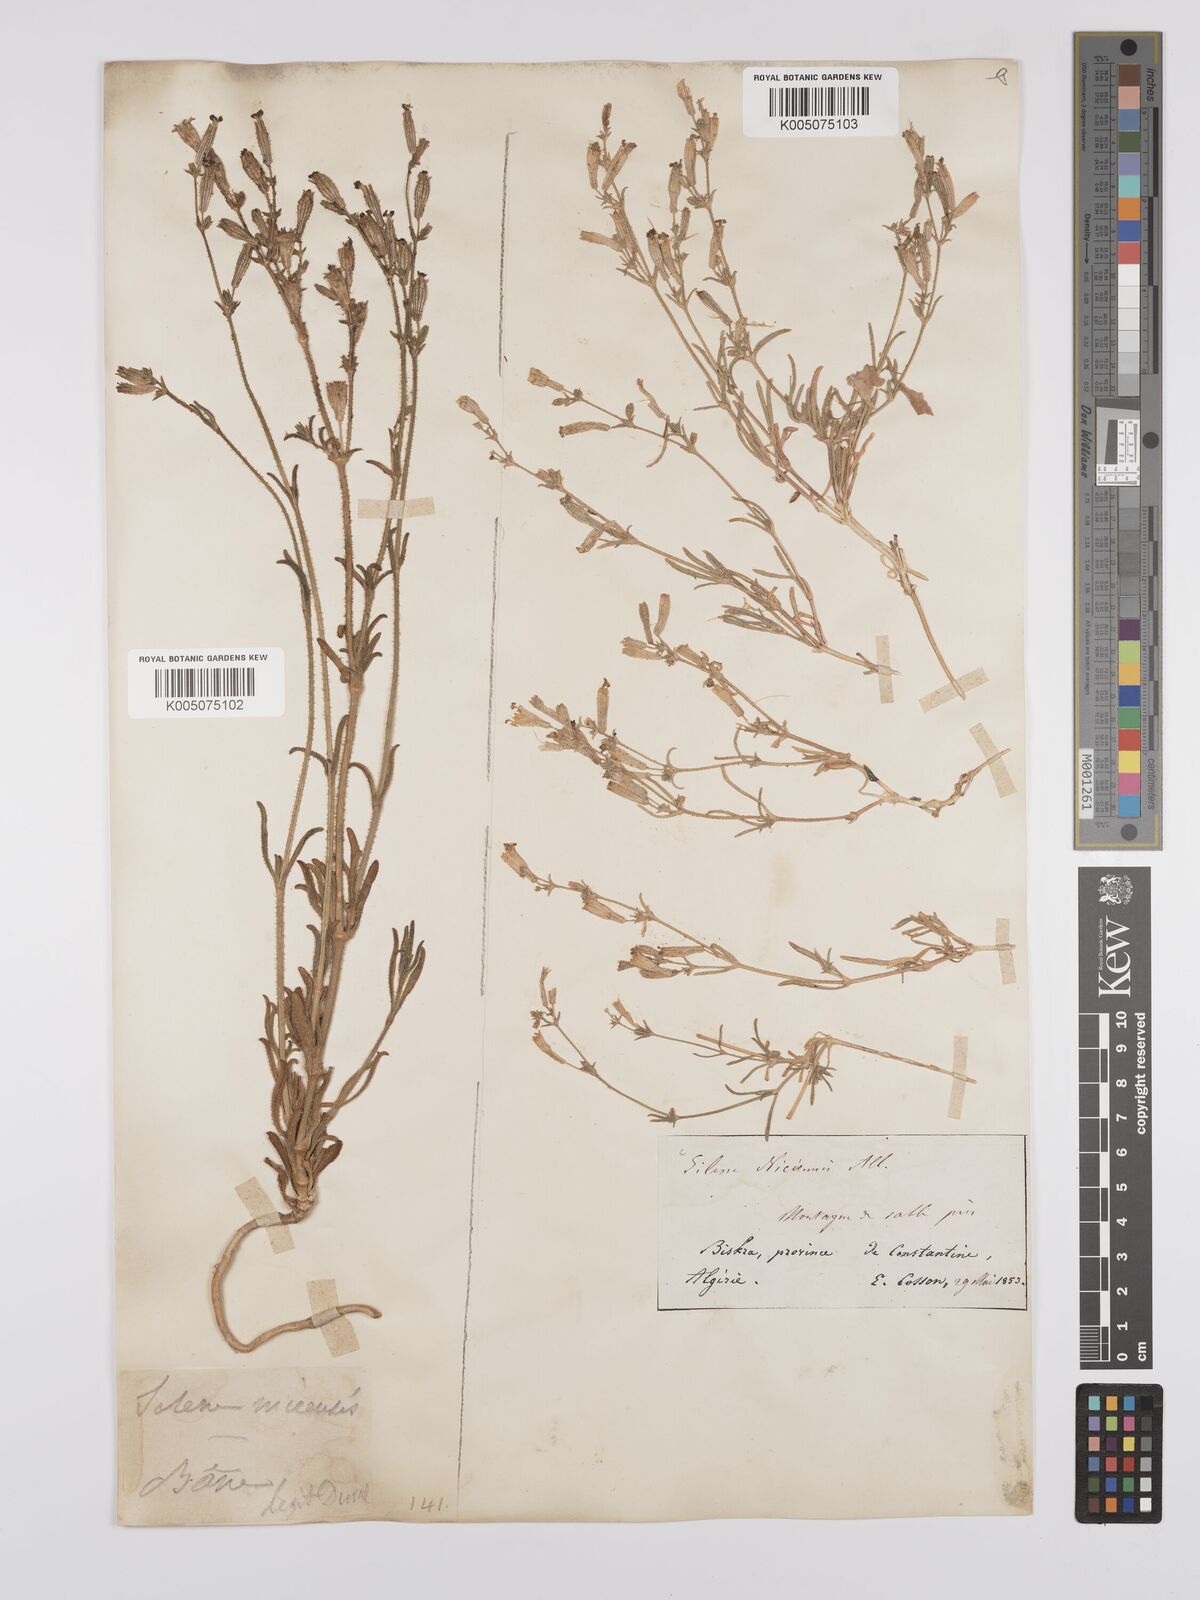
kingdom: Plantae
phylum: Tracheophyta
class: Magnoliopsida
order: Caryophyllales
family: Caryophyllaceae
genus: Silene
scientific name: Silene nicaeensis
